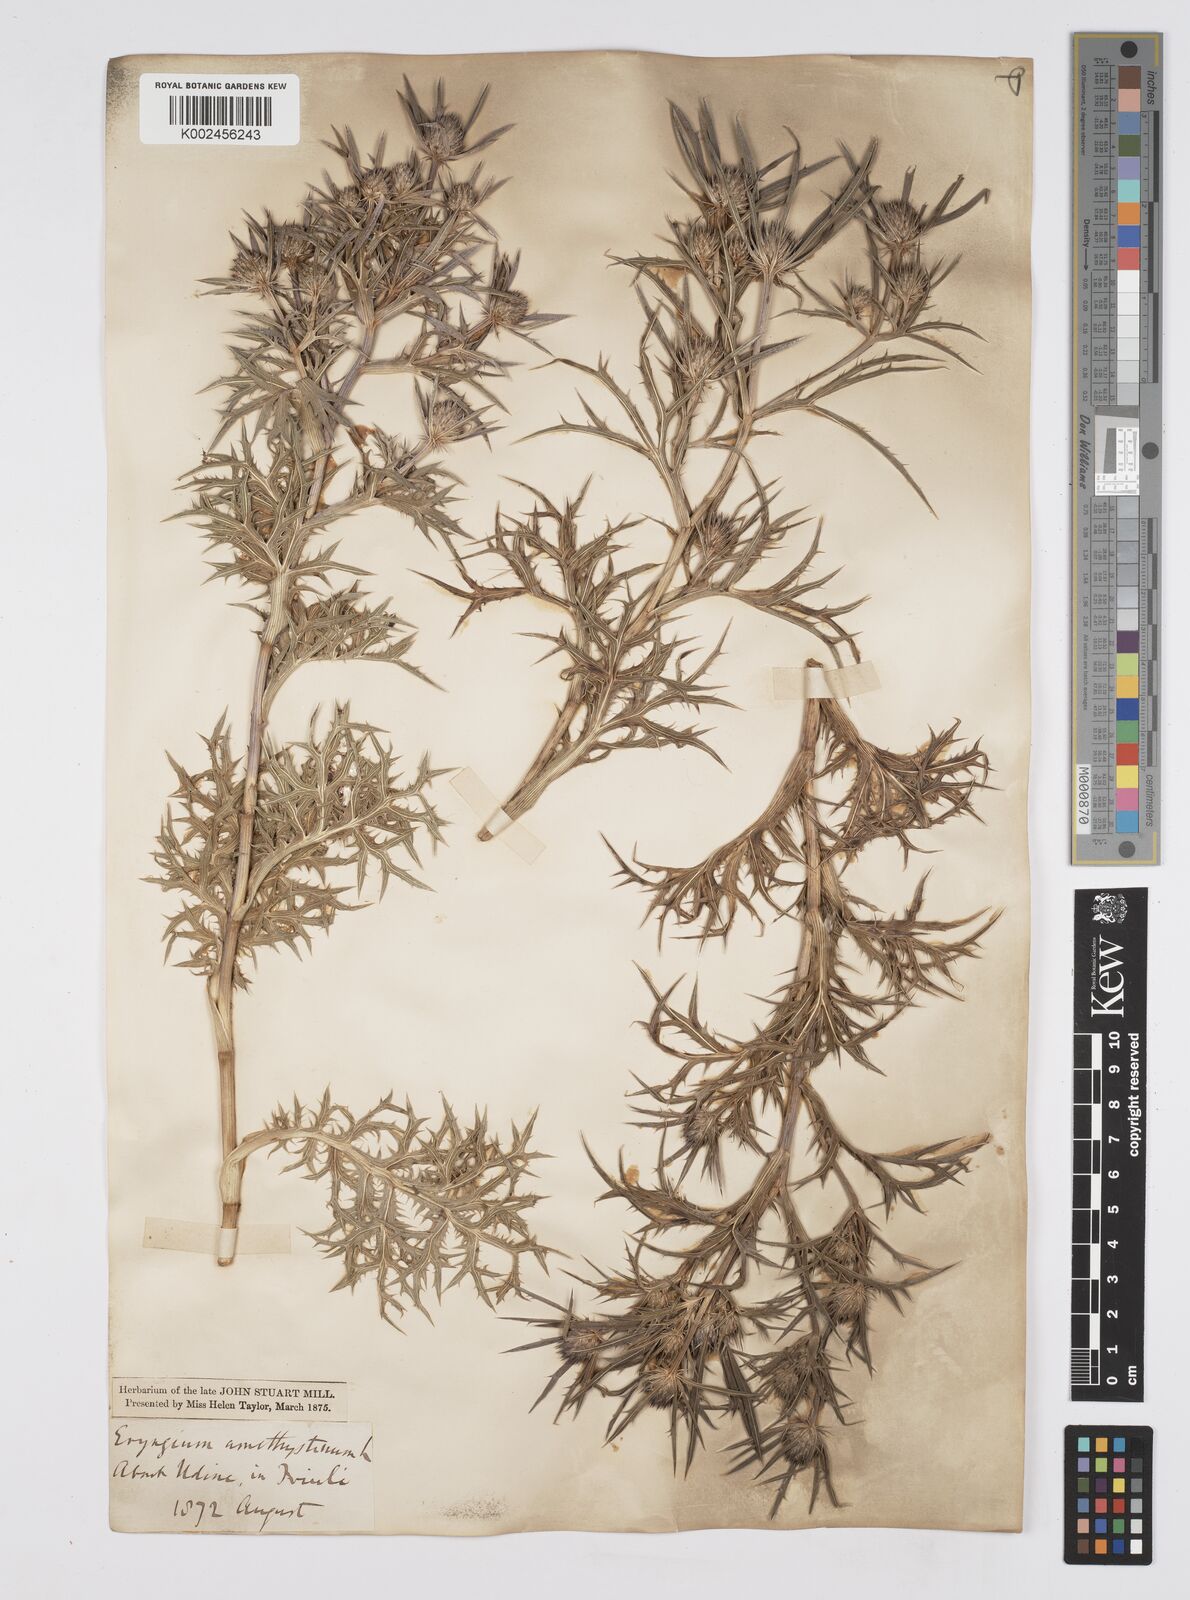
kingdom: Plantae
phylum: Tracheophyta
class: Magnoliopsida
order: Apiales
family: Apiaceae
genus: Eryngium
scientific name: Eryngium amethystinum
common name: Amethyst eryngo
